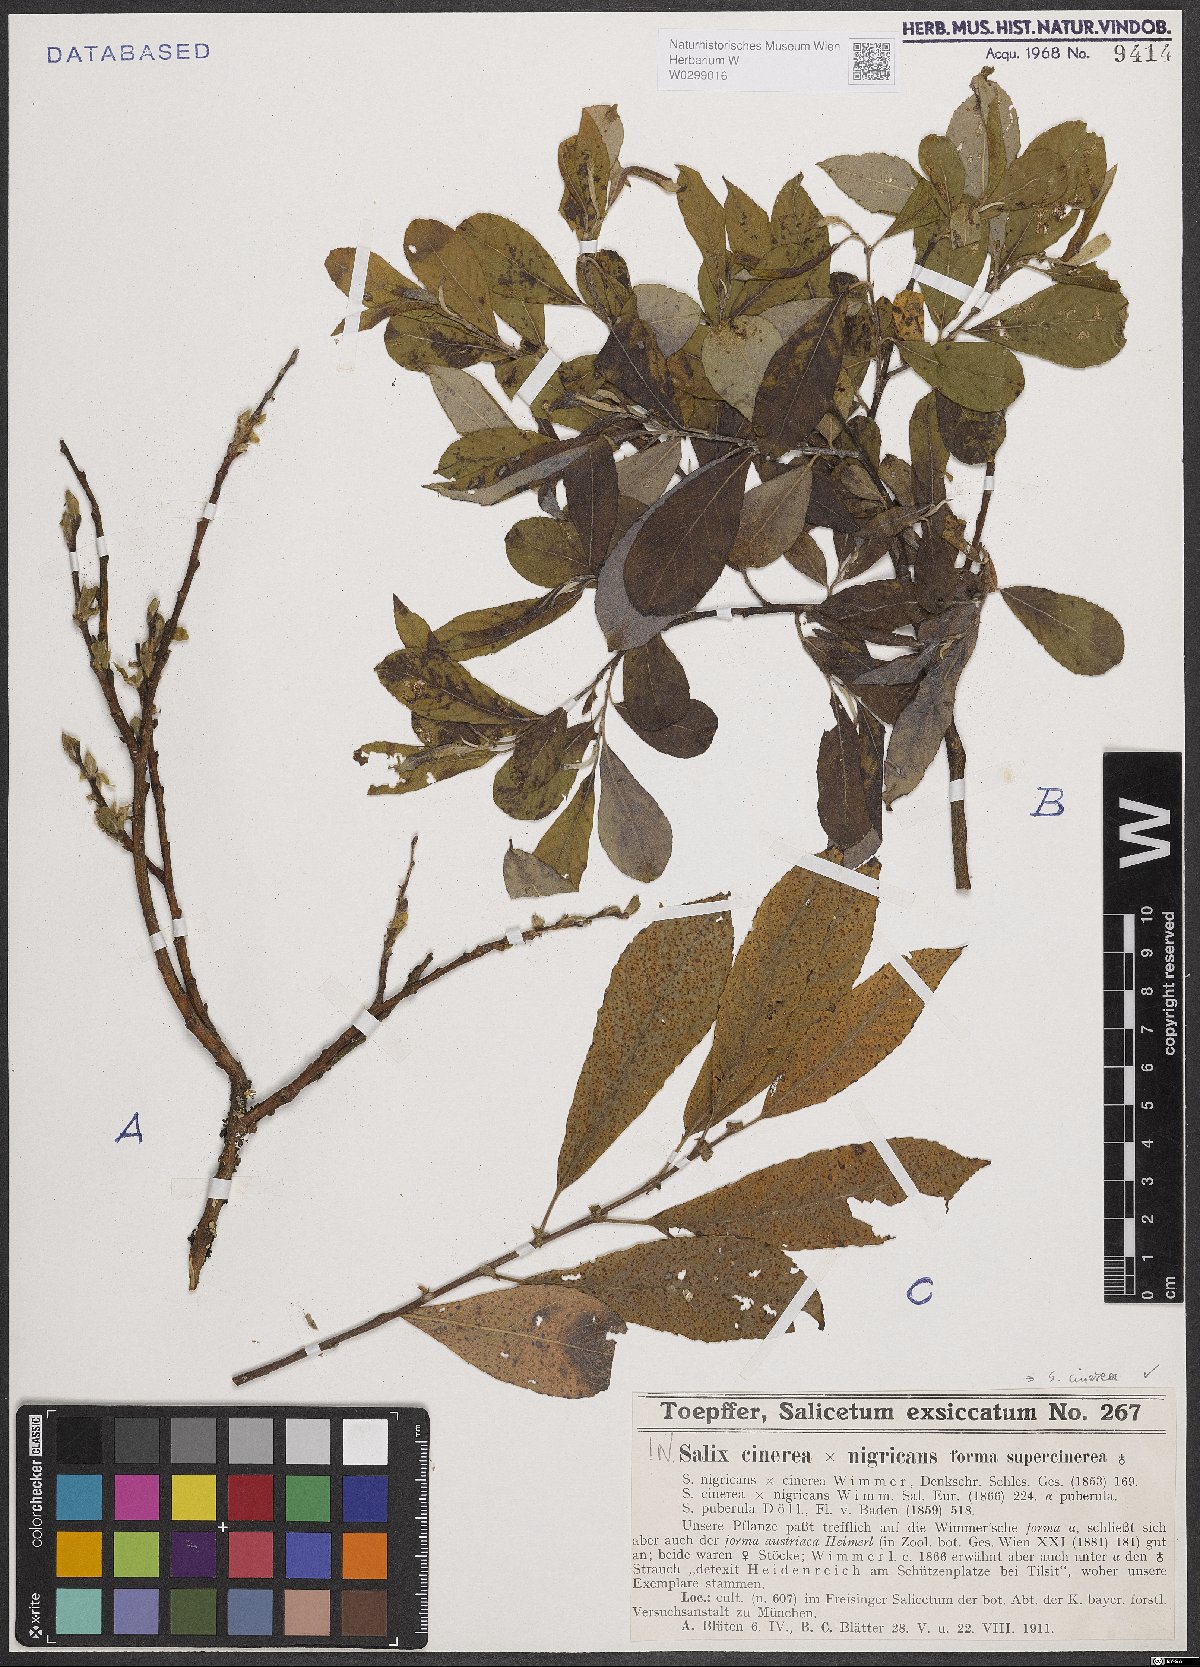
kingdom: Plantae
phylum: Tracheophyta
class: Magnoliopsida
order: Malpighiales
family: Salicaceae
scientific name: Salicaceae
